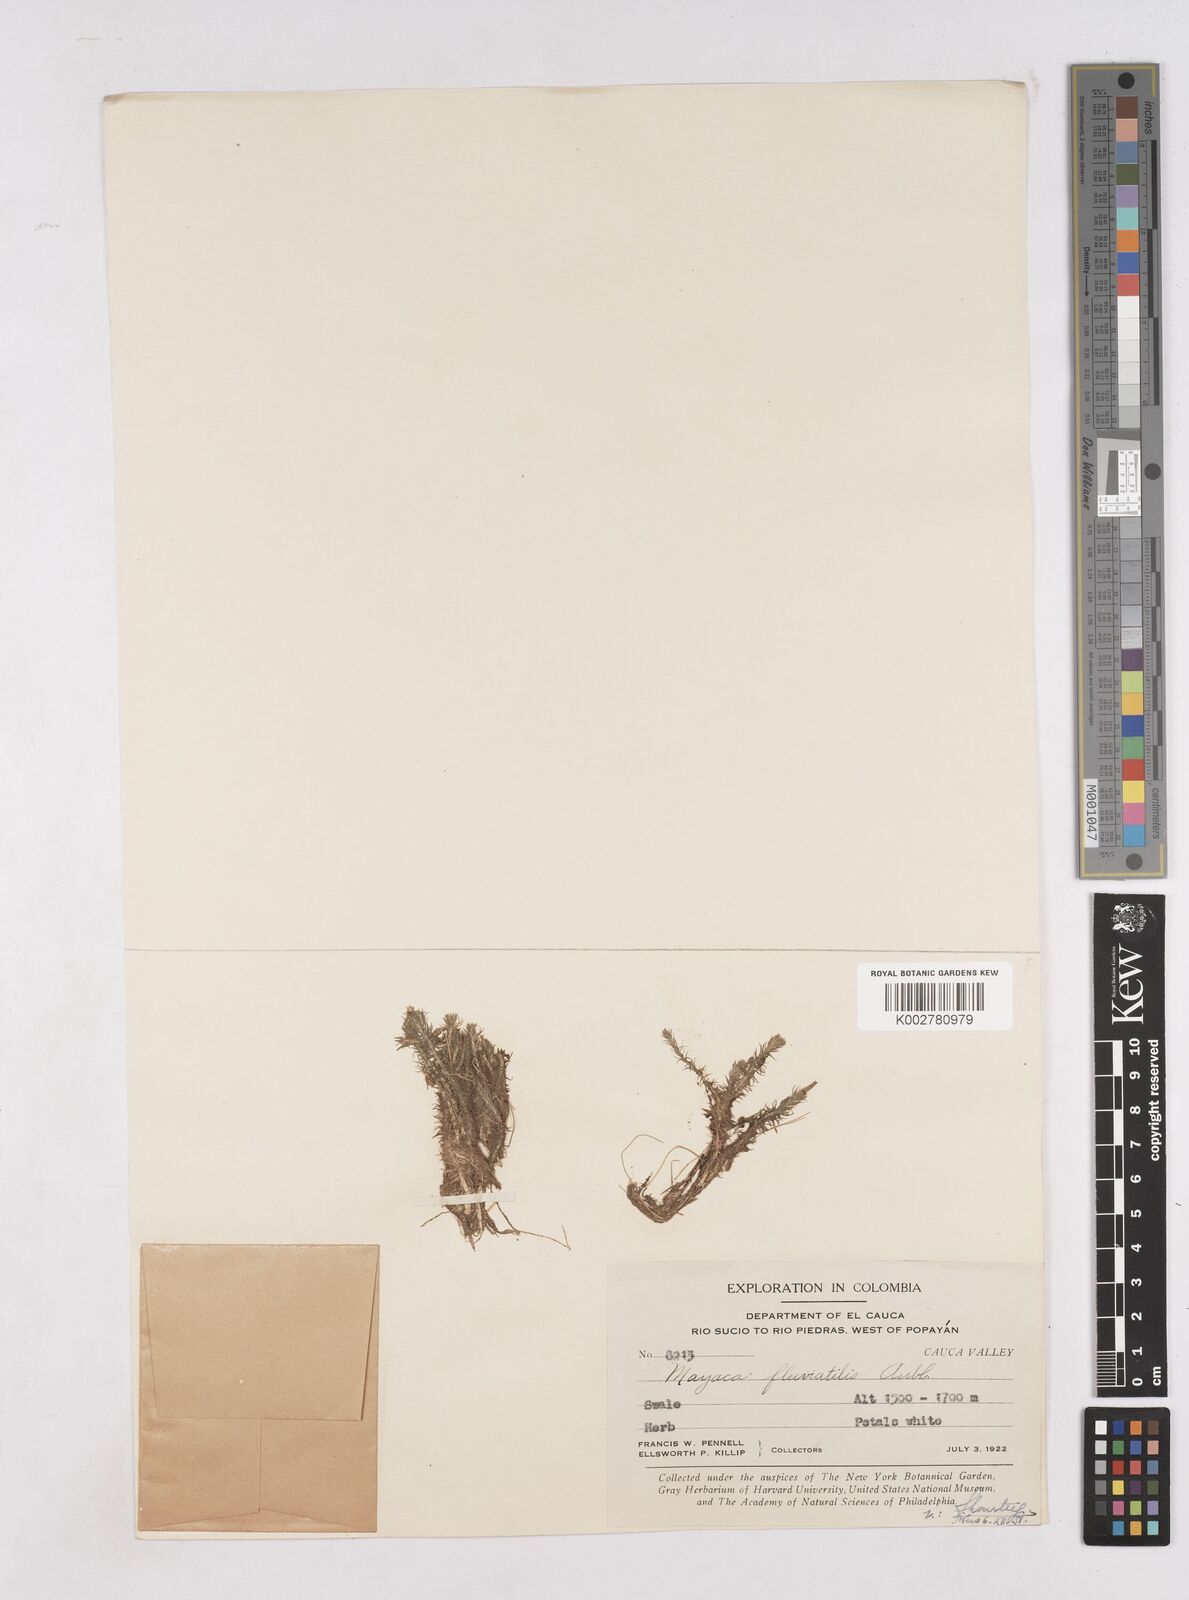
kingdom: Plantae
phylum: Tracheophyta
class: Liliopsida
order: Poales
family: Mayacaceae
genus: Mayaca
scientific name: Mayaca fluviatilis
